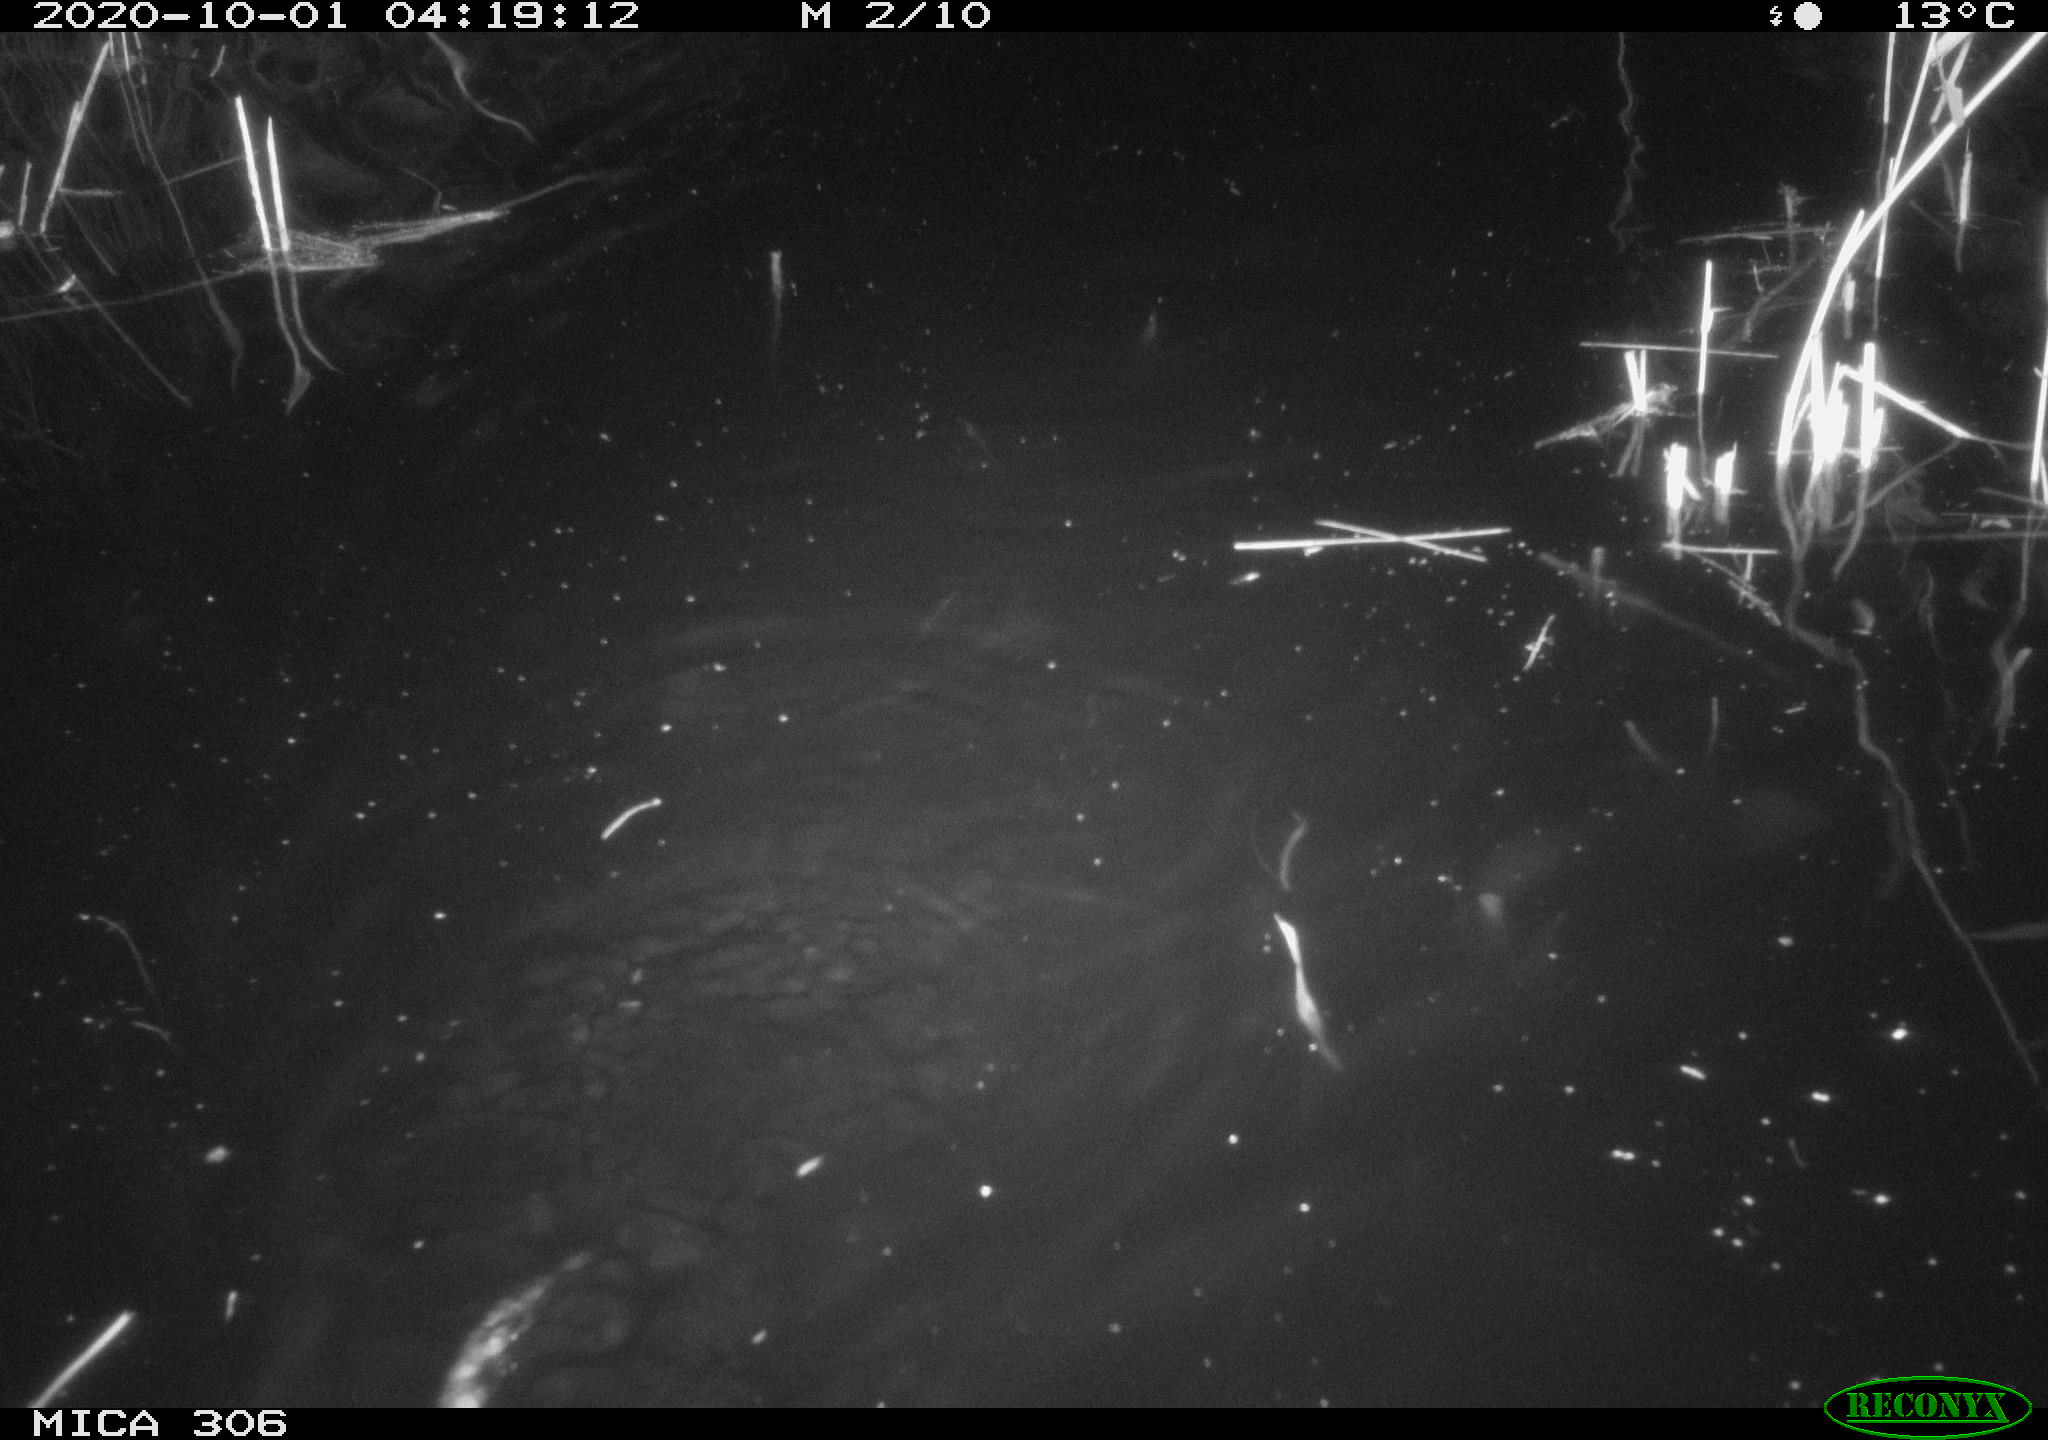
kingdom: Animalia
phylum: Chordata
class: Mammalia
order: Rodentia
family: Cricetidae
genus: Ondatra
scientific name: Ondatra zibethicus
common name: Muskrat
